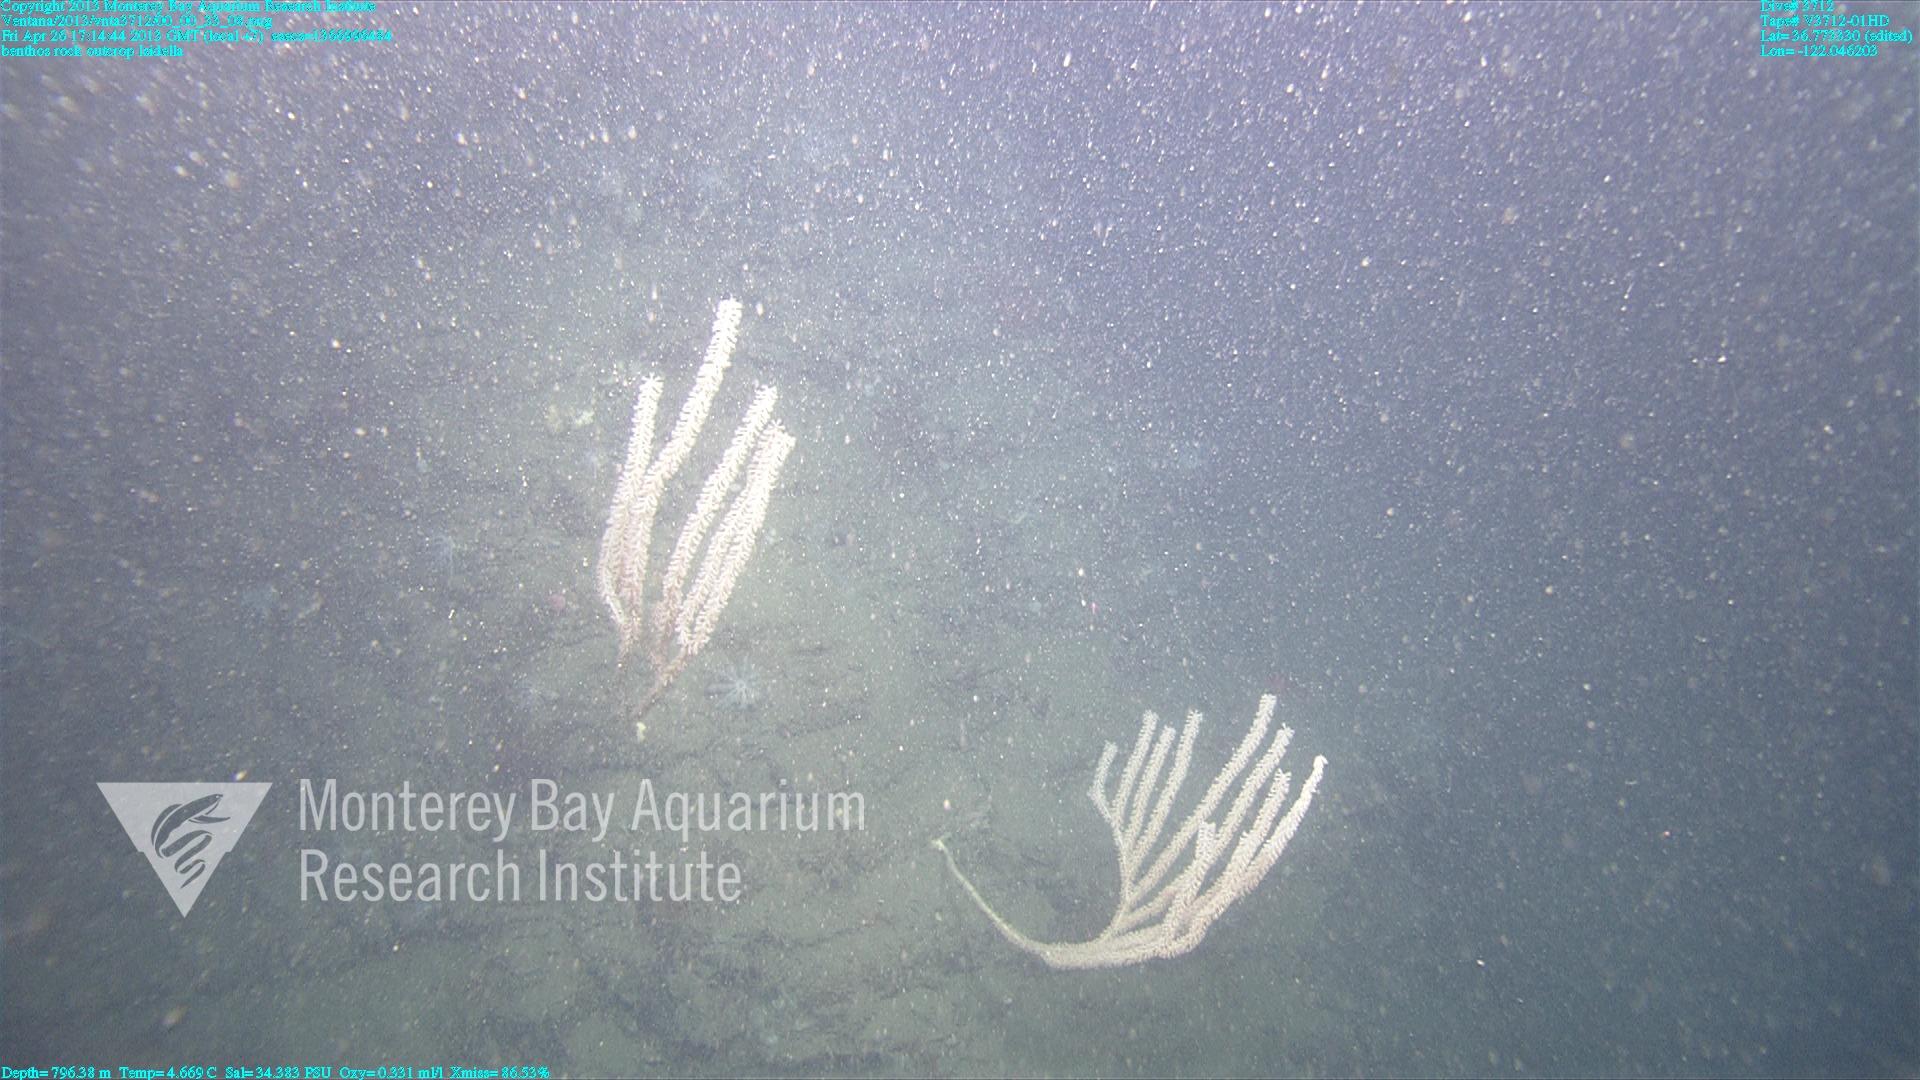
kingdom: Animalia
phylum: Cnidaria
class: Anthozoa
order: Scleralcyonacea
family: Keratoisididae
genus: Isidella
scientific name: Isidella
